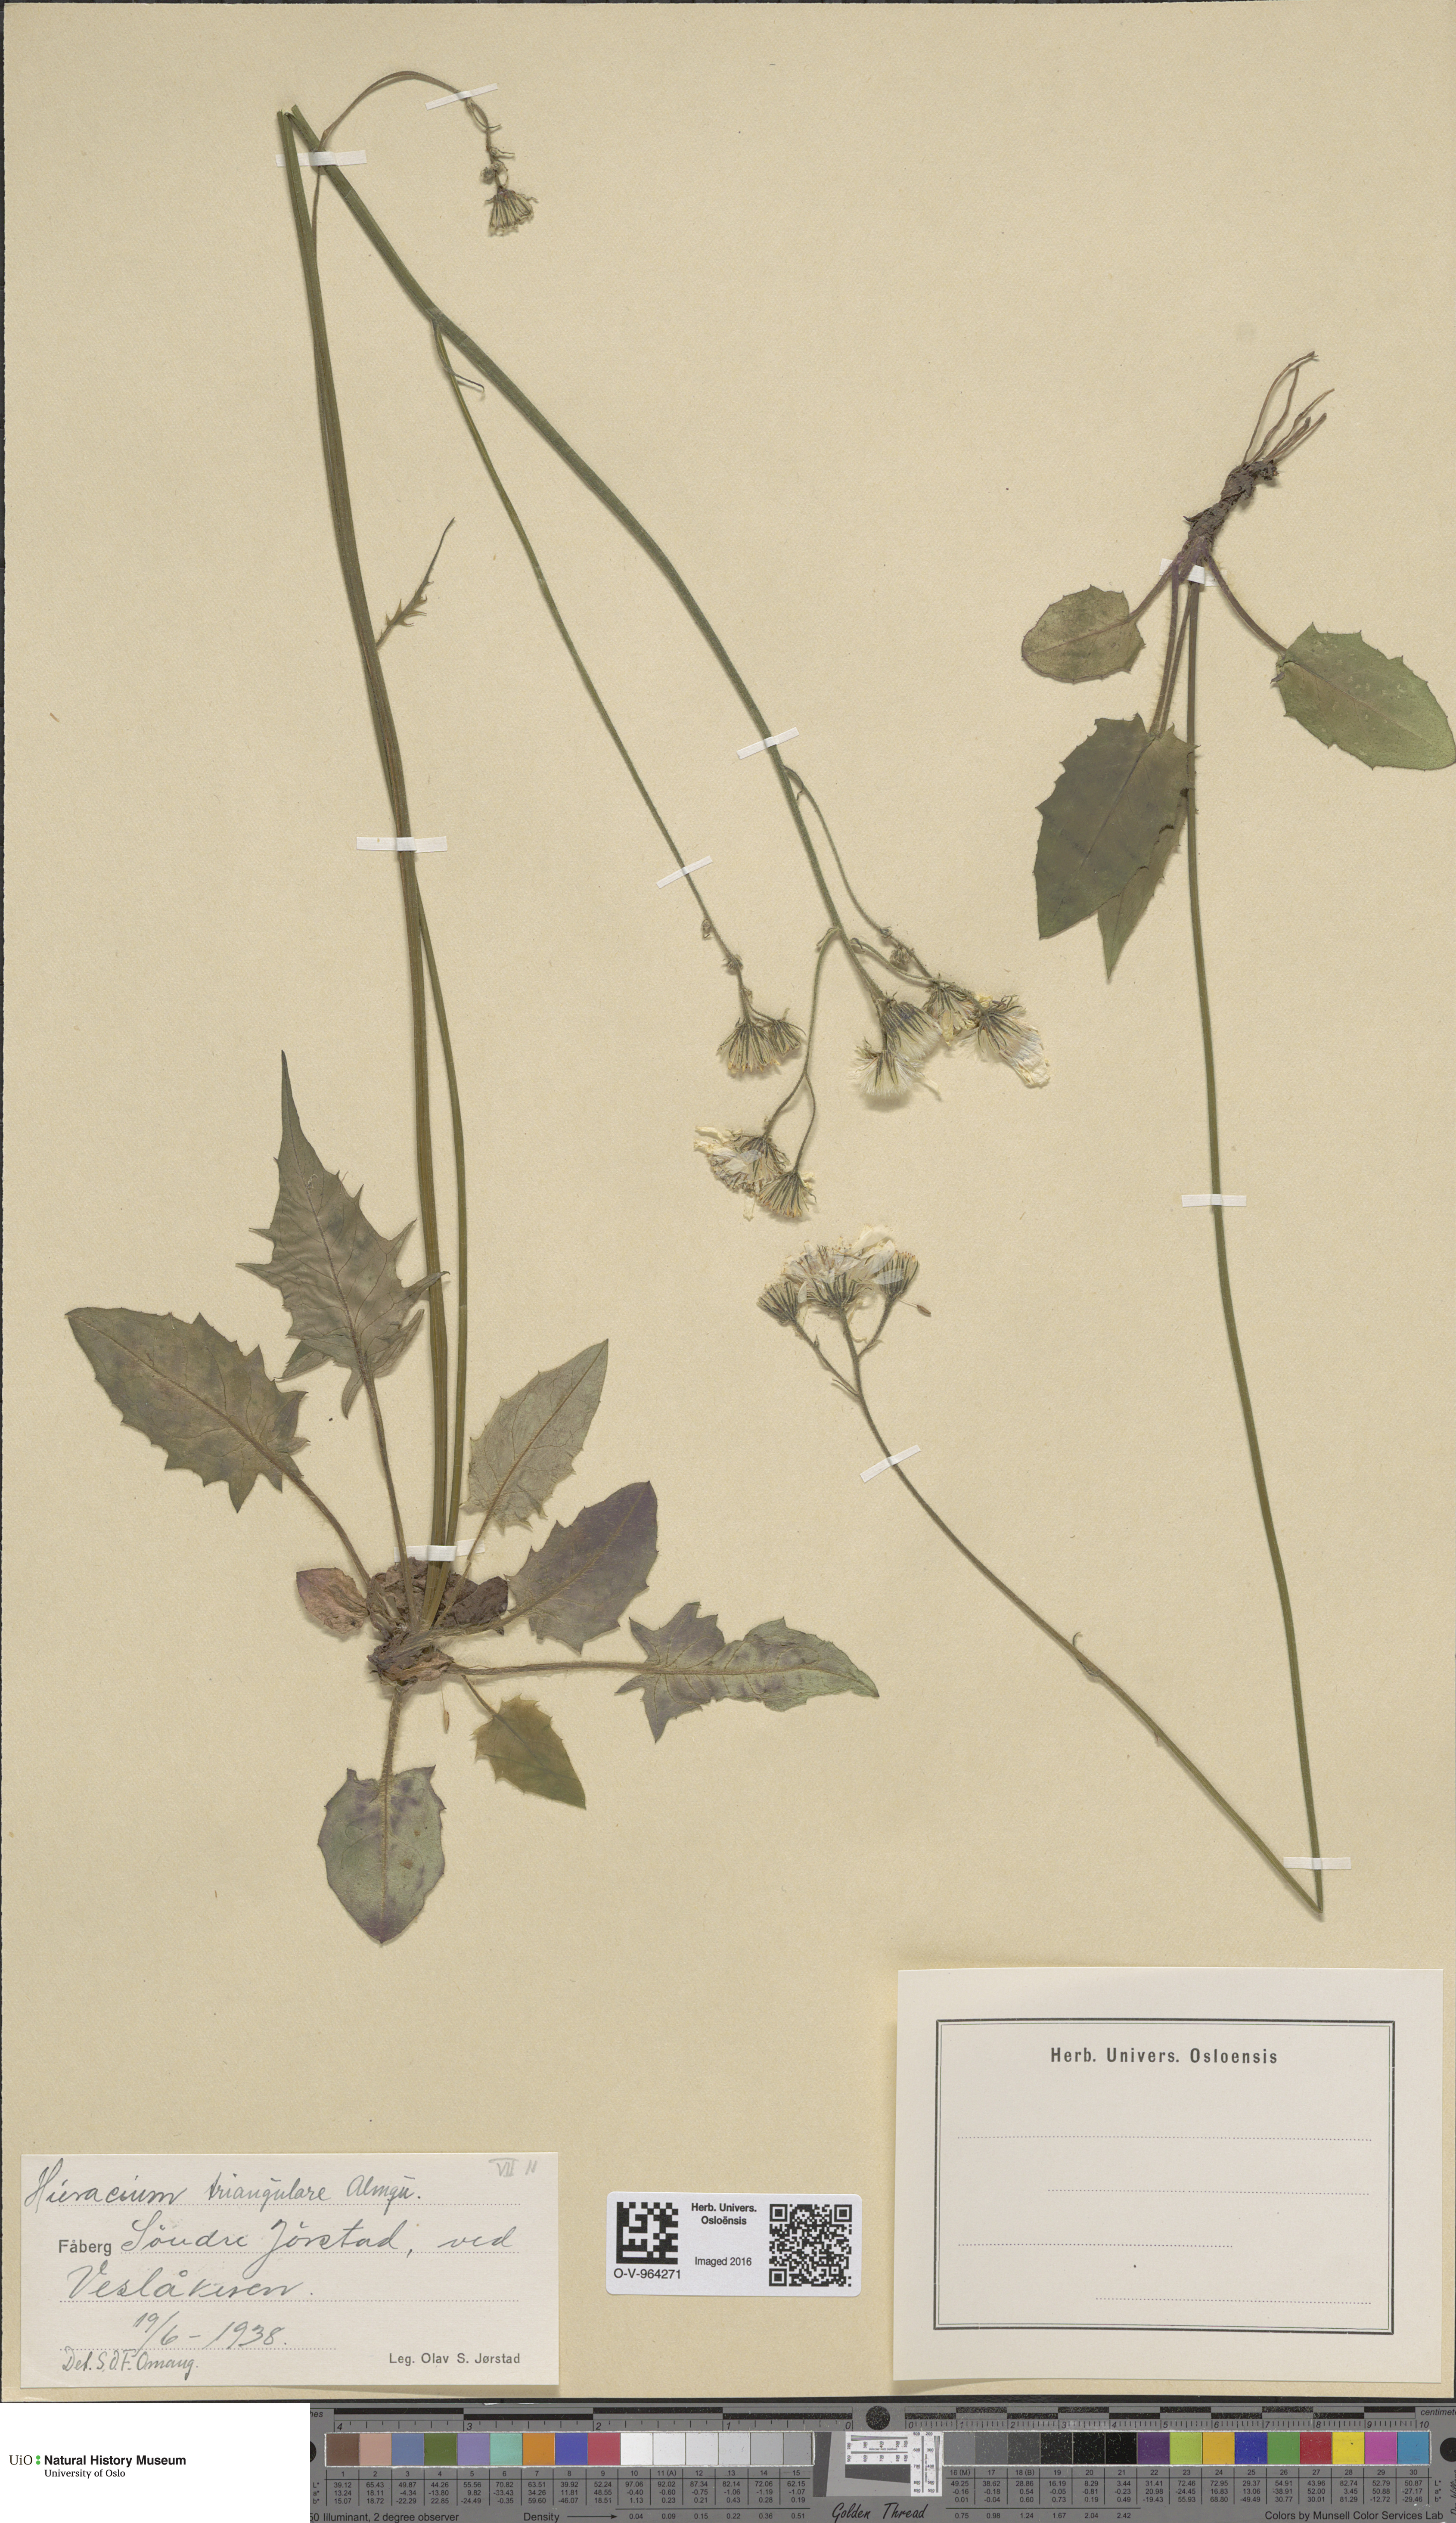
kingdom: Plantae
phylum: Tracheophyta
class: Magnoliopsida
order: Asterales
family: Asteraceae
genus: Hieracium
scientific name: Hieracium triangulare
